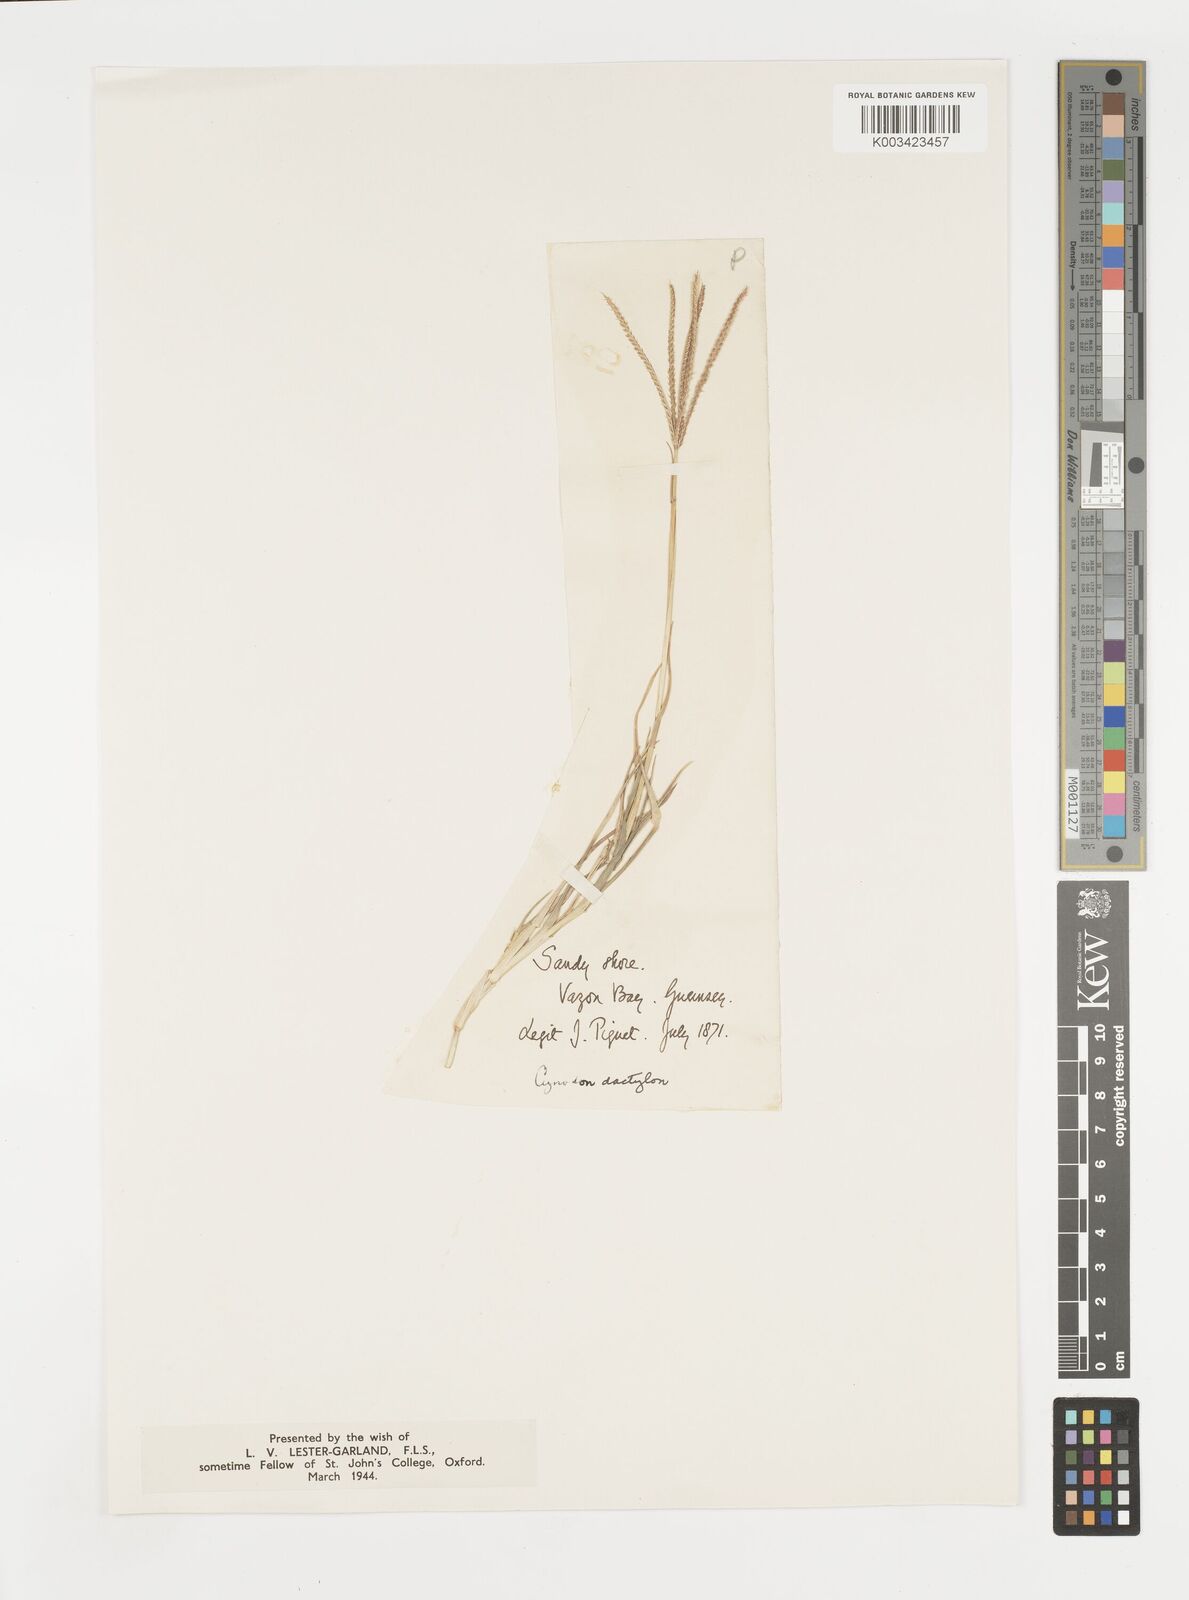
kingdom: Plantae
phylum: Tracheophyta
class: Liliopsida
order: Poales
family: Poaceae
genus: Cynodon
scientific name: Cynodon dactylon
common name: Bermuda grass
